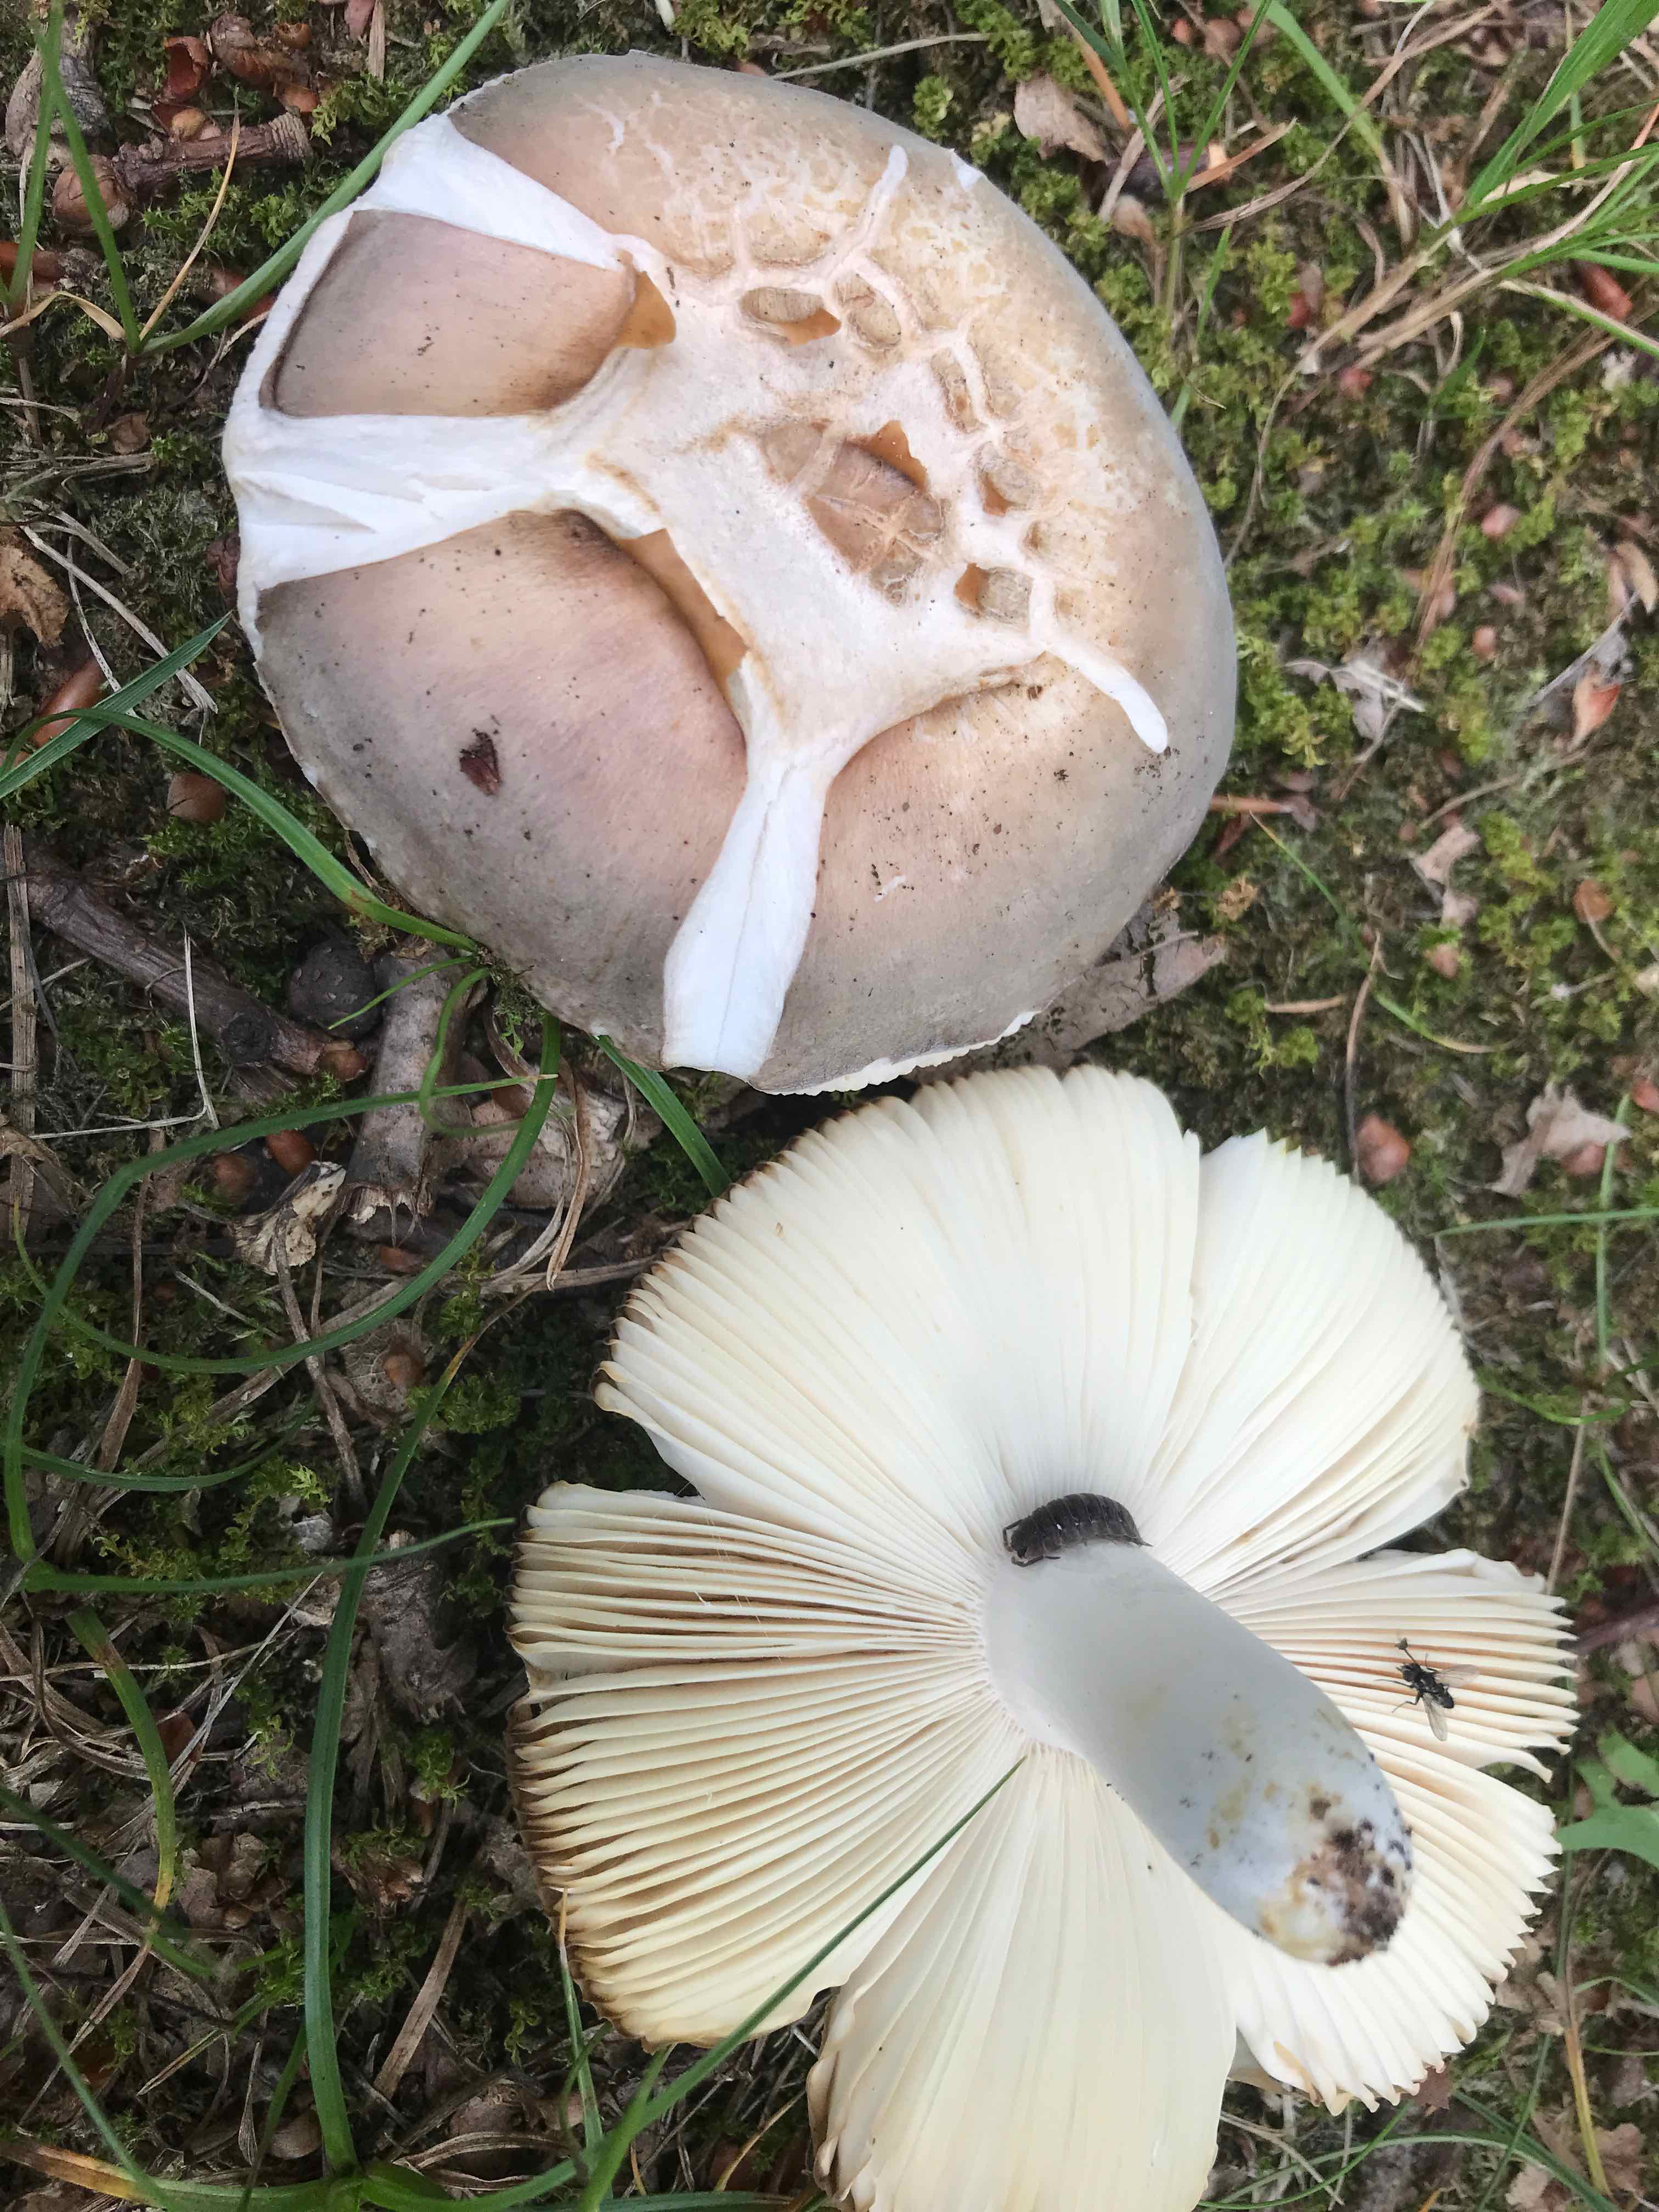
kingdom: Fungi
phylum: Basidiomycota
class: Agaricomycetes
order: Russulales
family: Russulaceae
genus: Russula
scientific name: Russula
